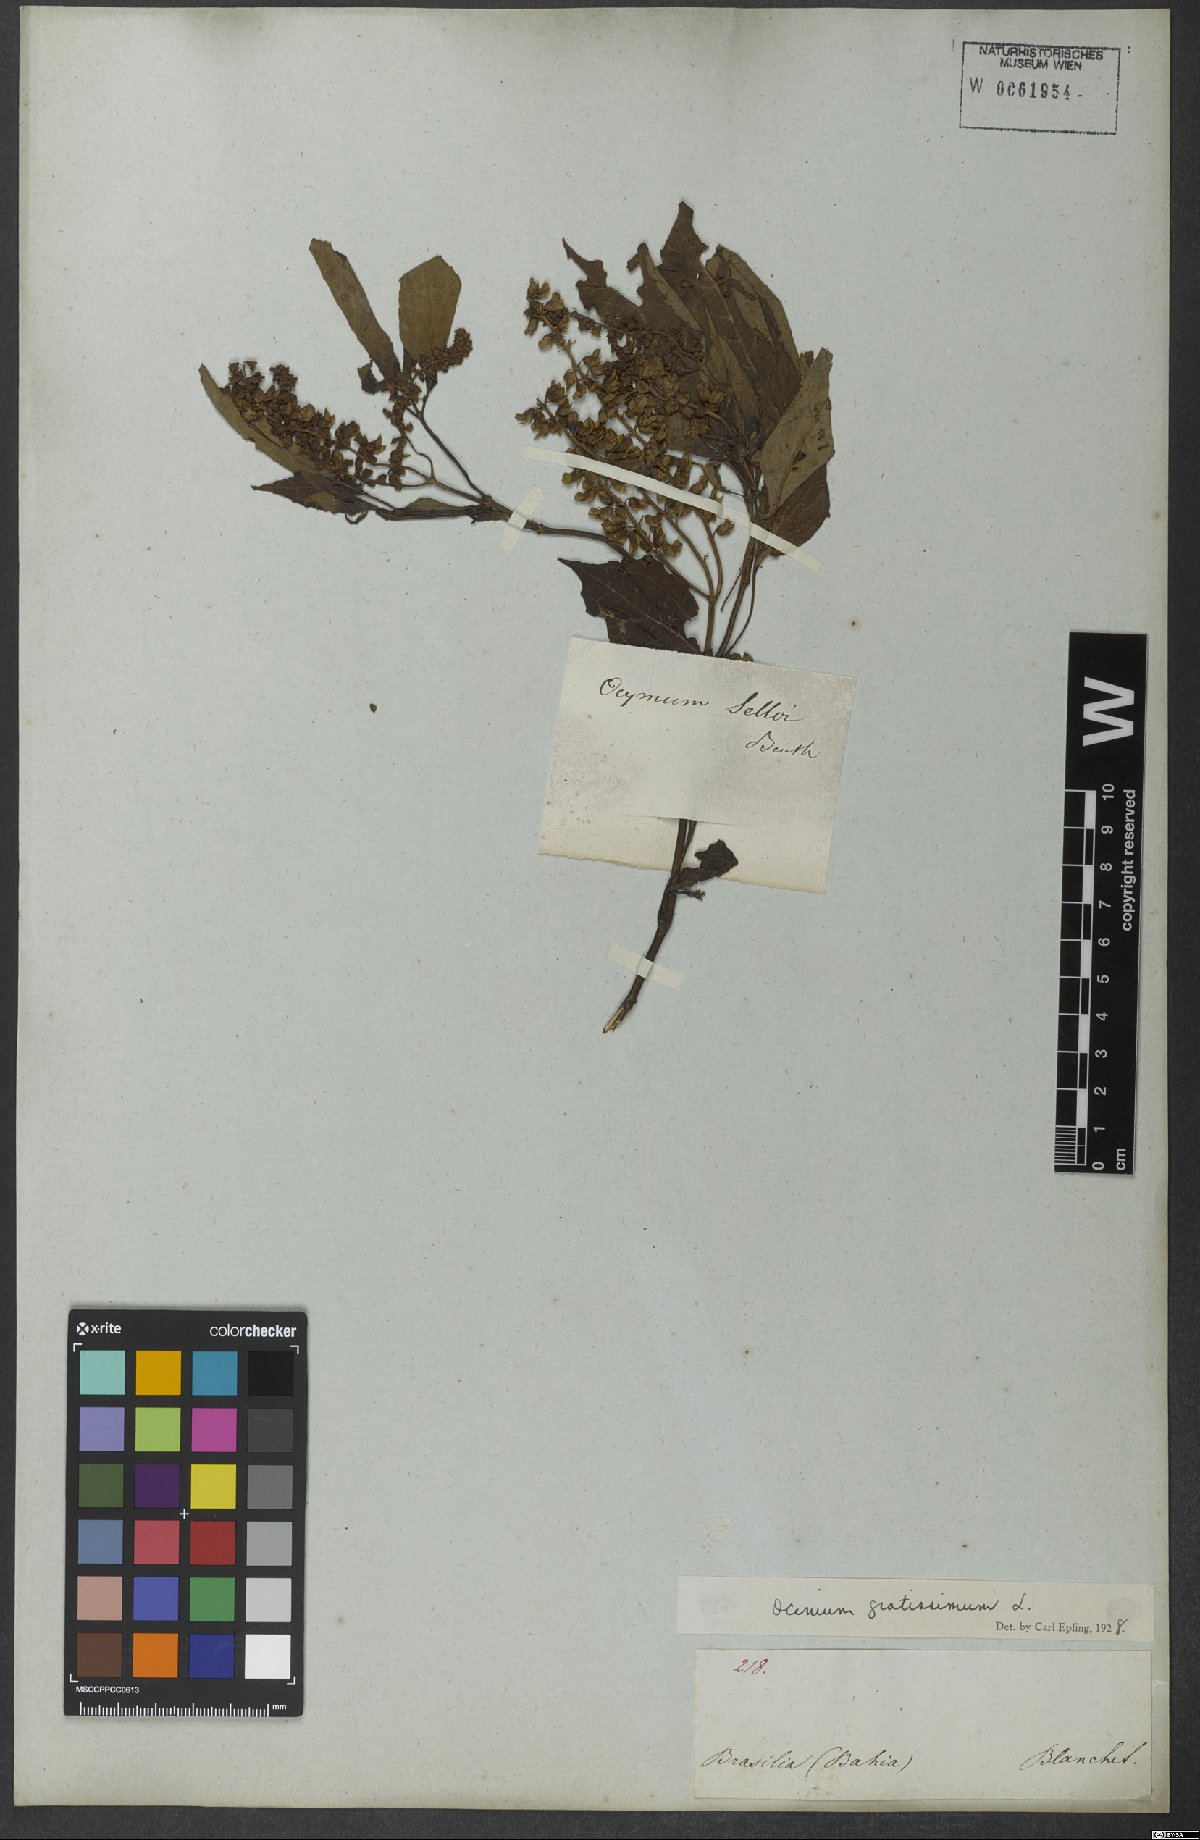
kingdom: Plantae
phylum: Tracheophyta
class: Magnoliopsida
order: Lamiales
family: Lamiaceae
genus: Ocimum
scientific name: Ocimum gratissimum
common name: African basil
